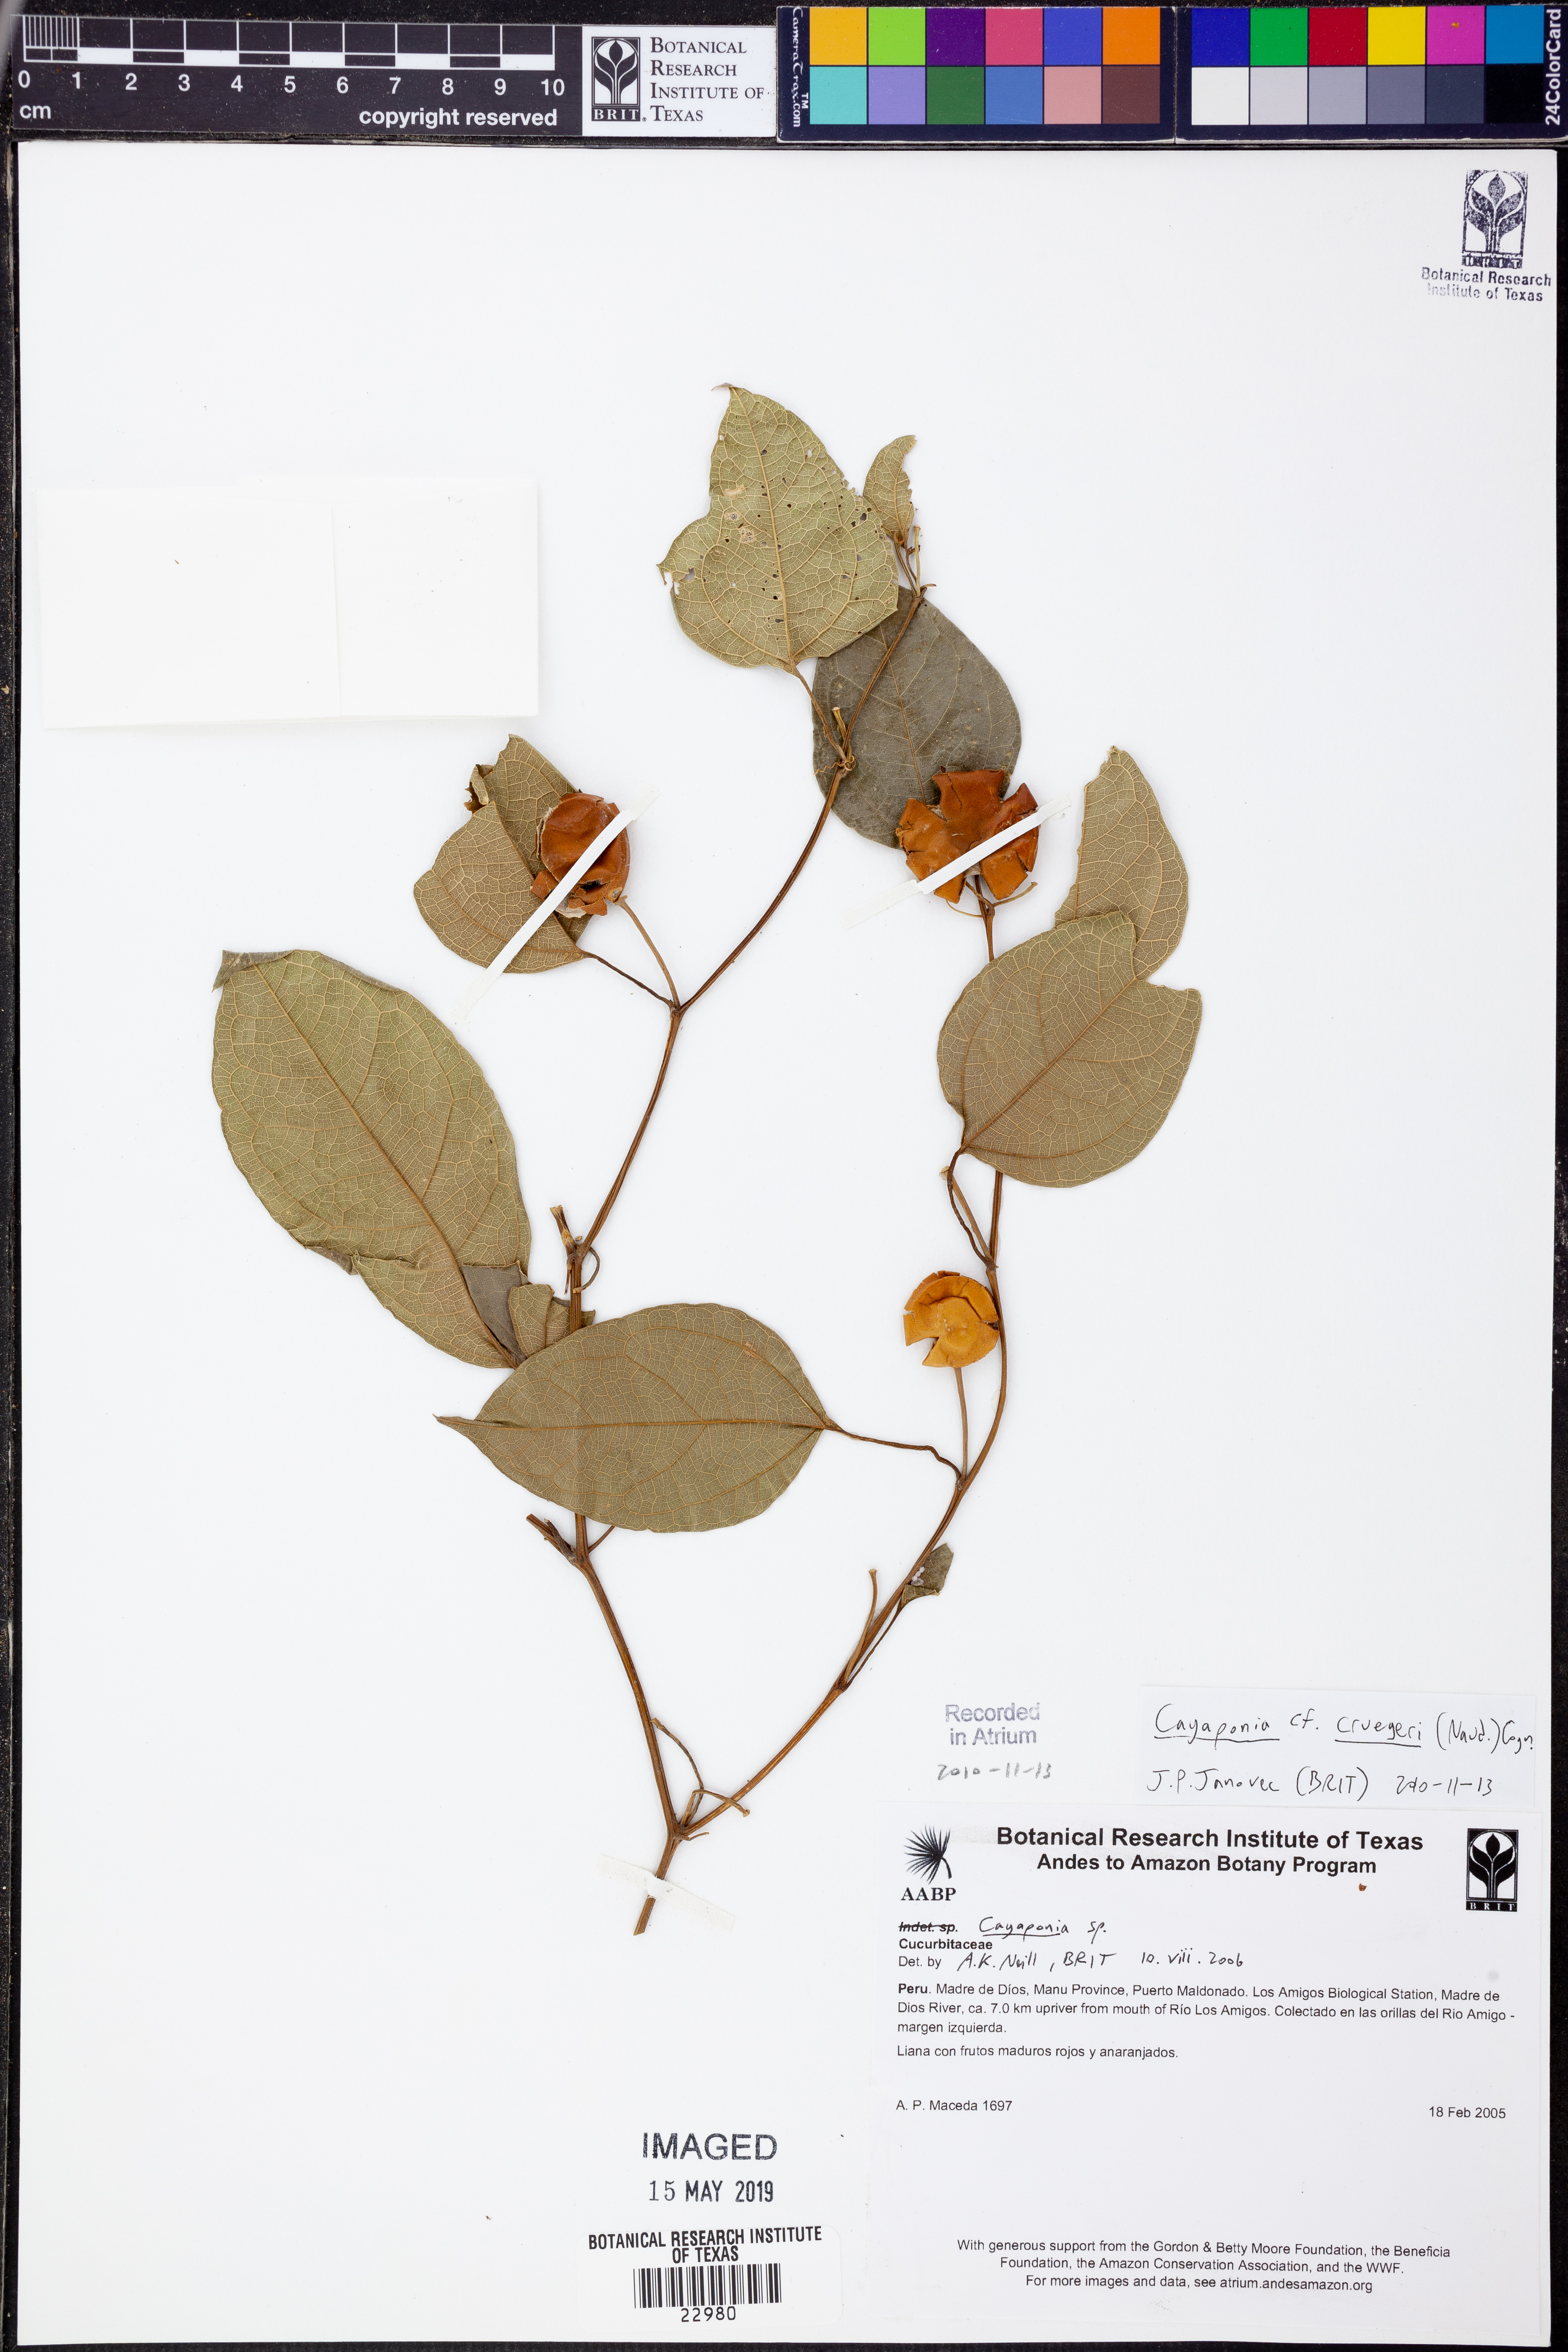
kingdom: Plantae
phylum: Tracheophyta
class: Magnoliopsida
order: Cucurbitales
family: Cucurbitaceae
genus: Cayaponia
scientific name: Cayaponia
